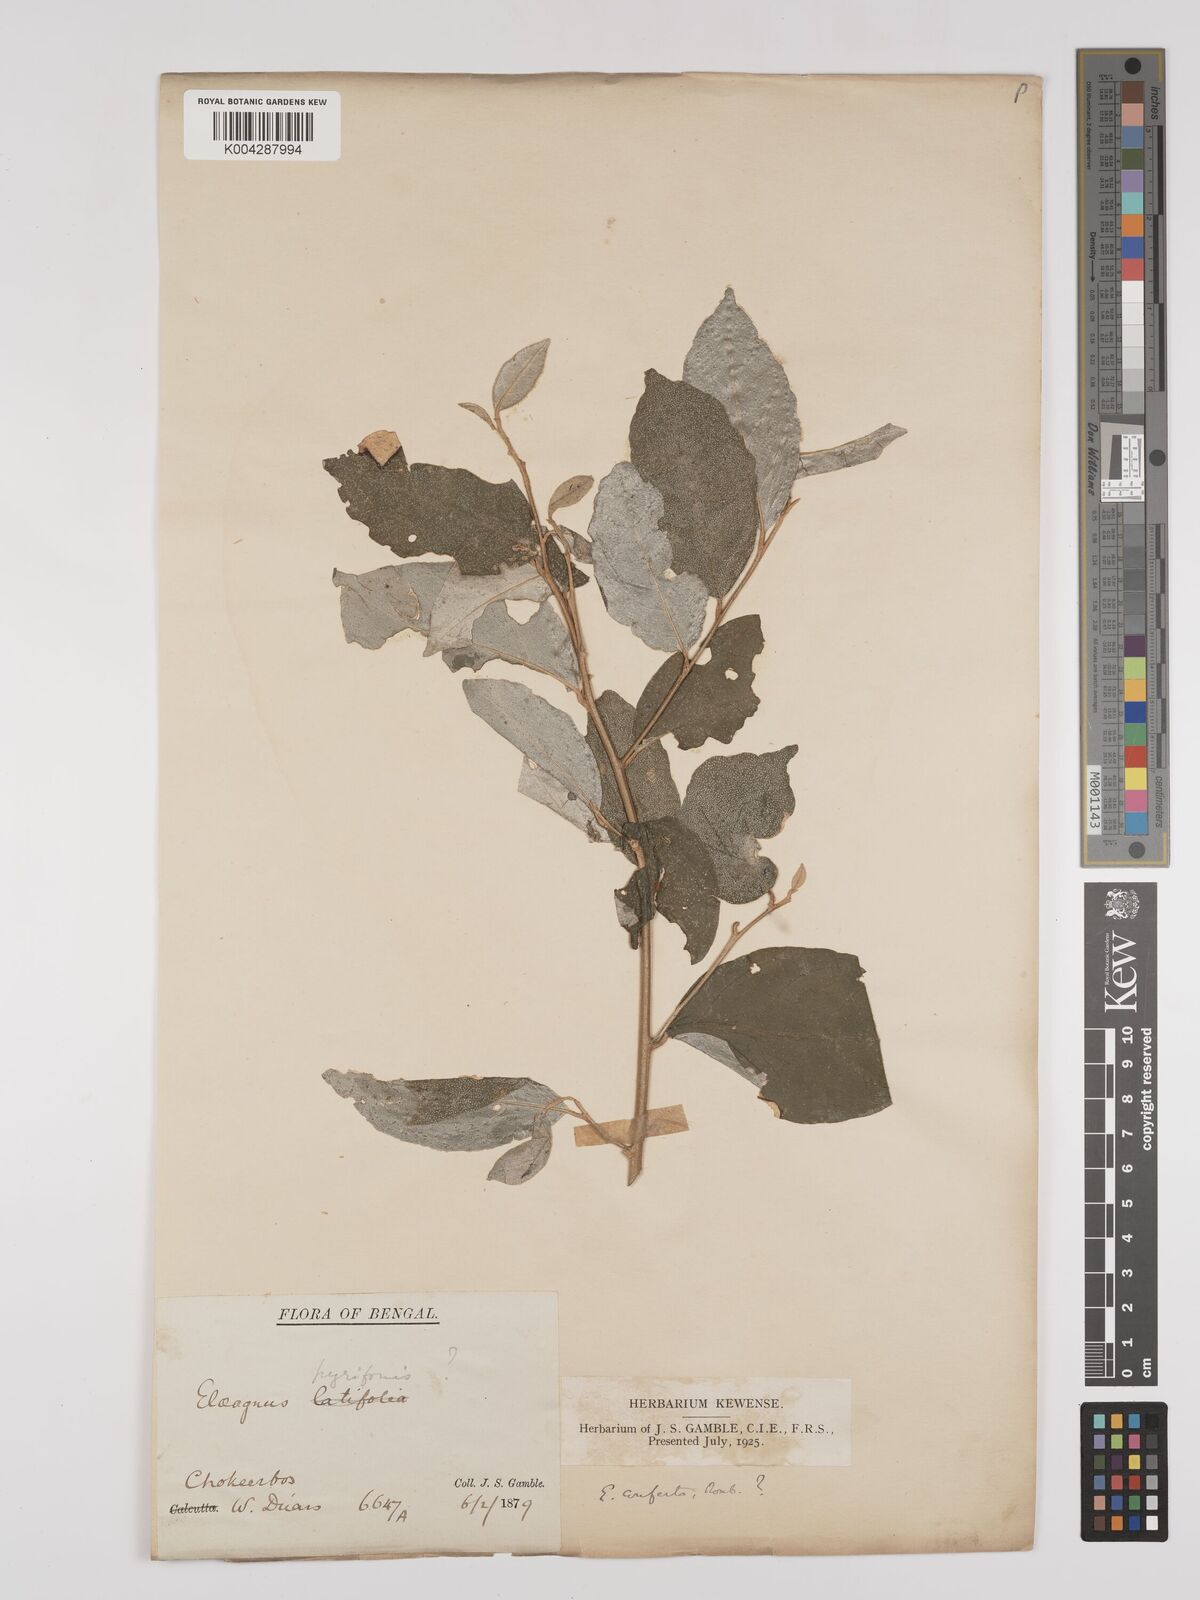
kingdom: Plantae
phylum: Tracheophyta
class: Magnoliopsida
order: Rosales
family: Elaeagnaceae
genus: Elaeagnus
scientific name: Elaeagnus latifolia
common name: Oleaster
